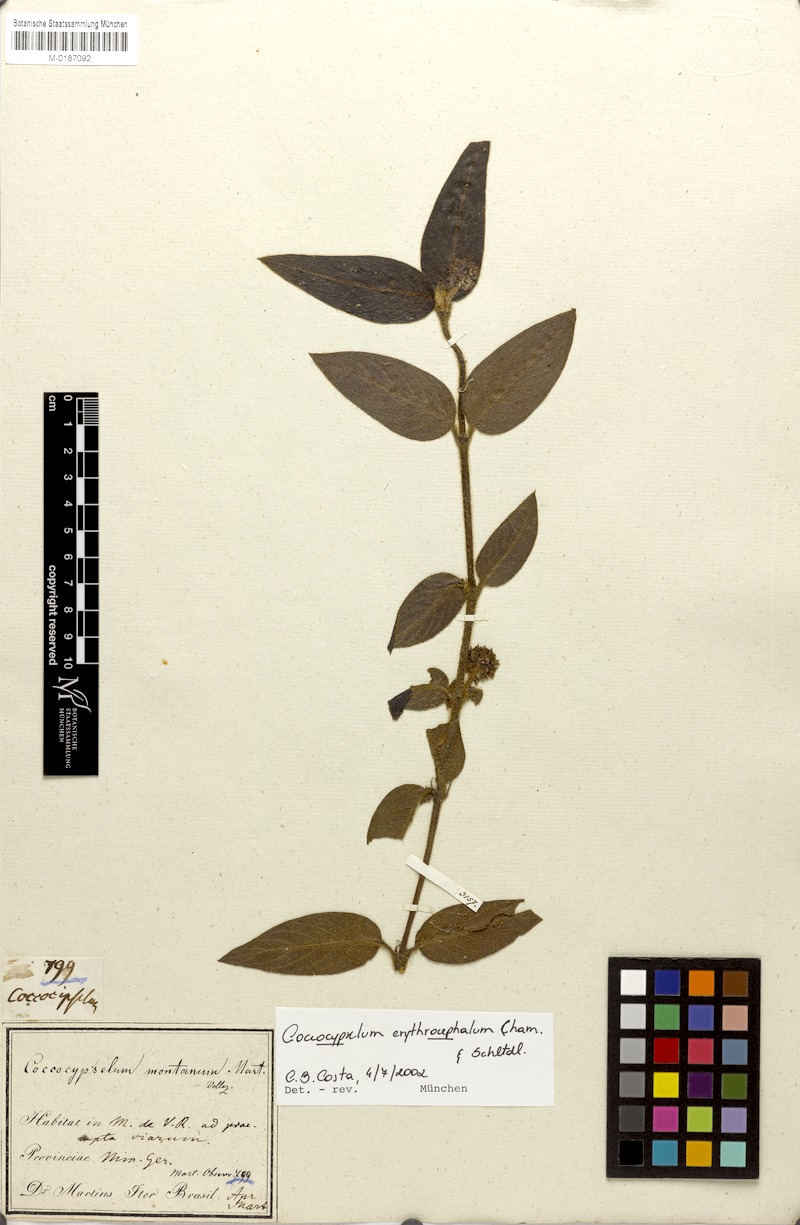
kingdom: Plantae
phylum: Tracheophyta
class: Magnoliopsida
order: Gentianales
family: Rubiaceae
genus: Coccocypselum
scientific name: Coccocypselum erythrocephalum
